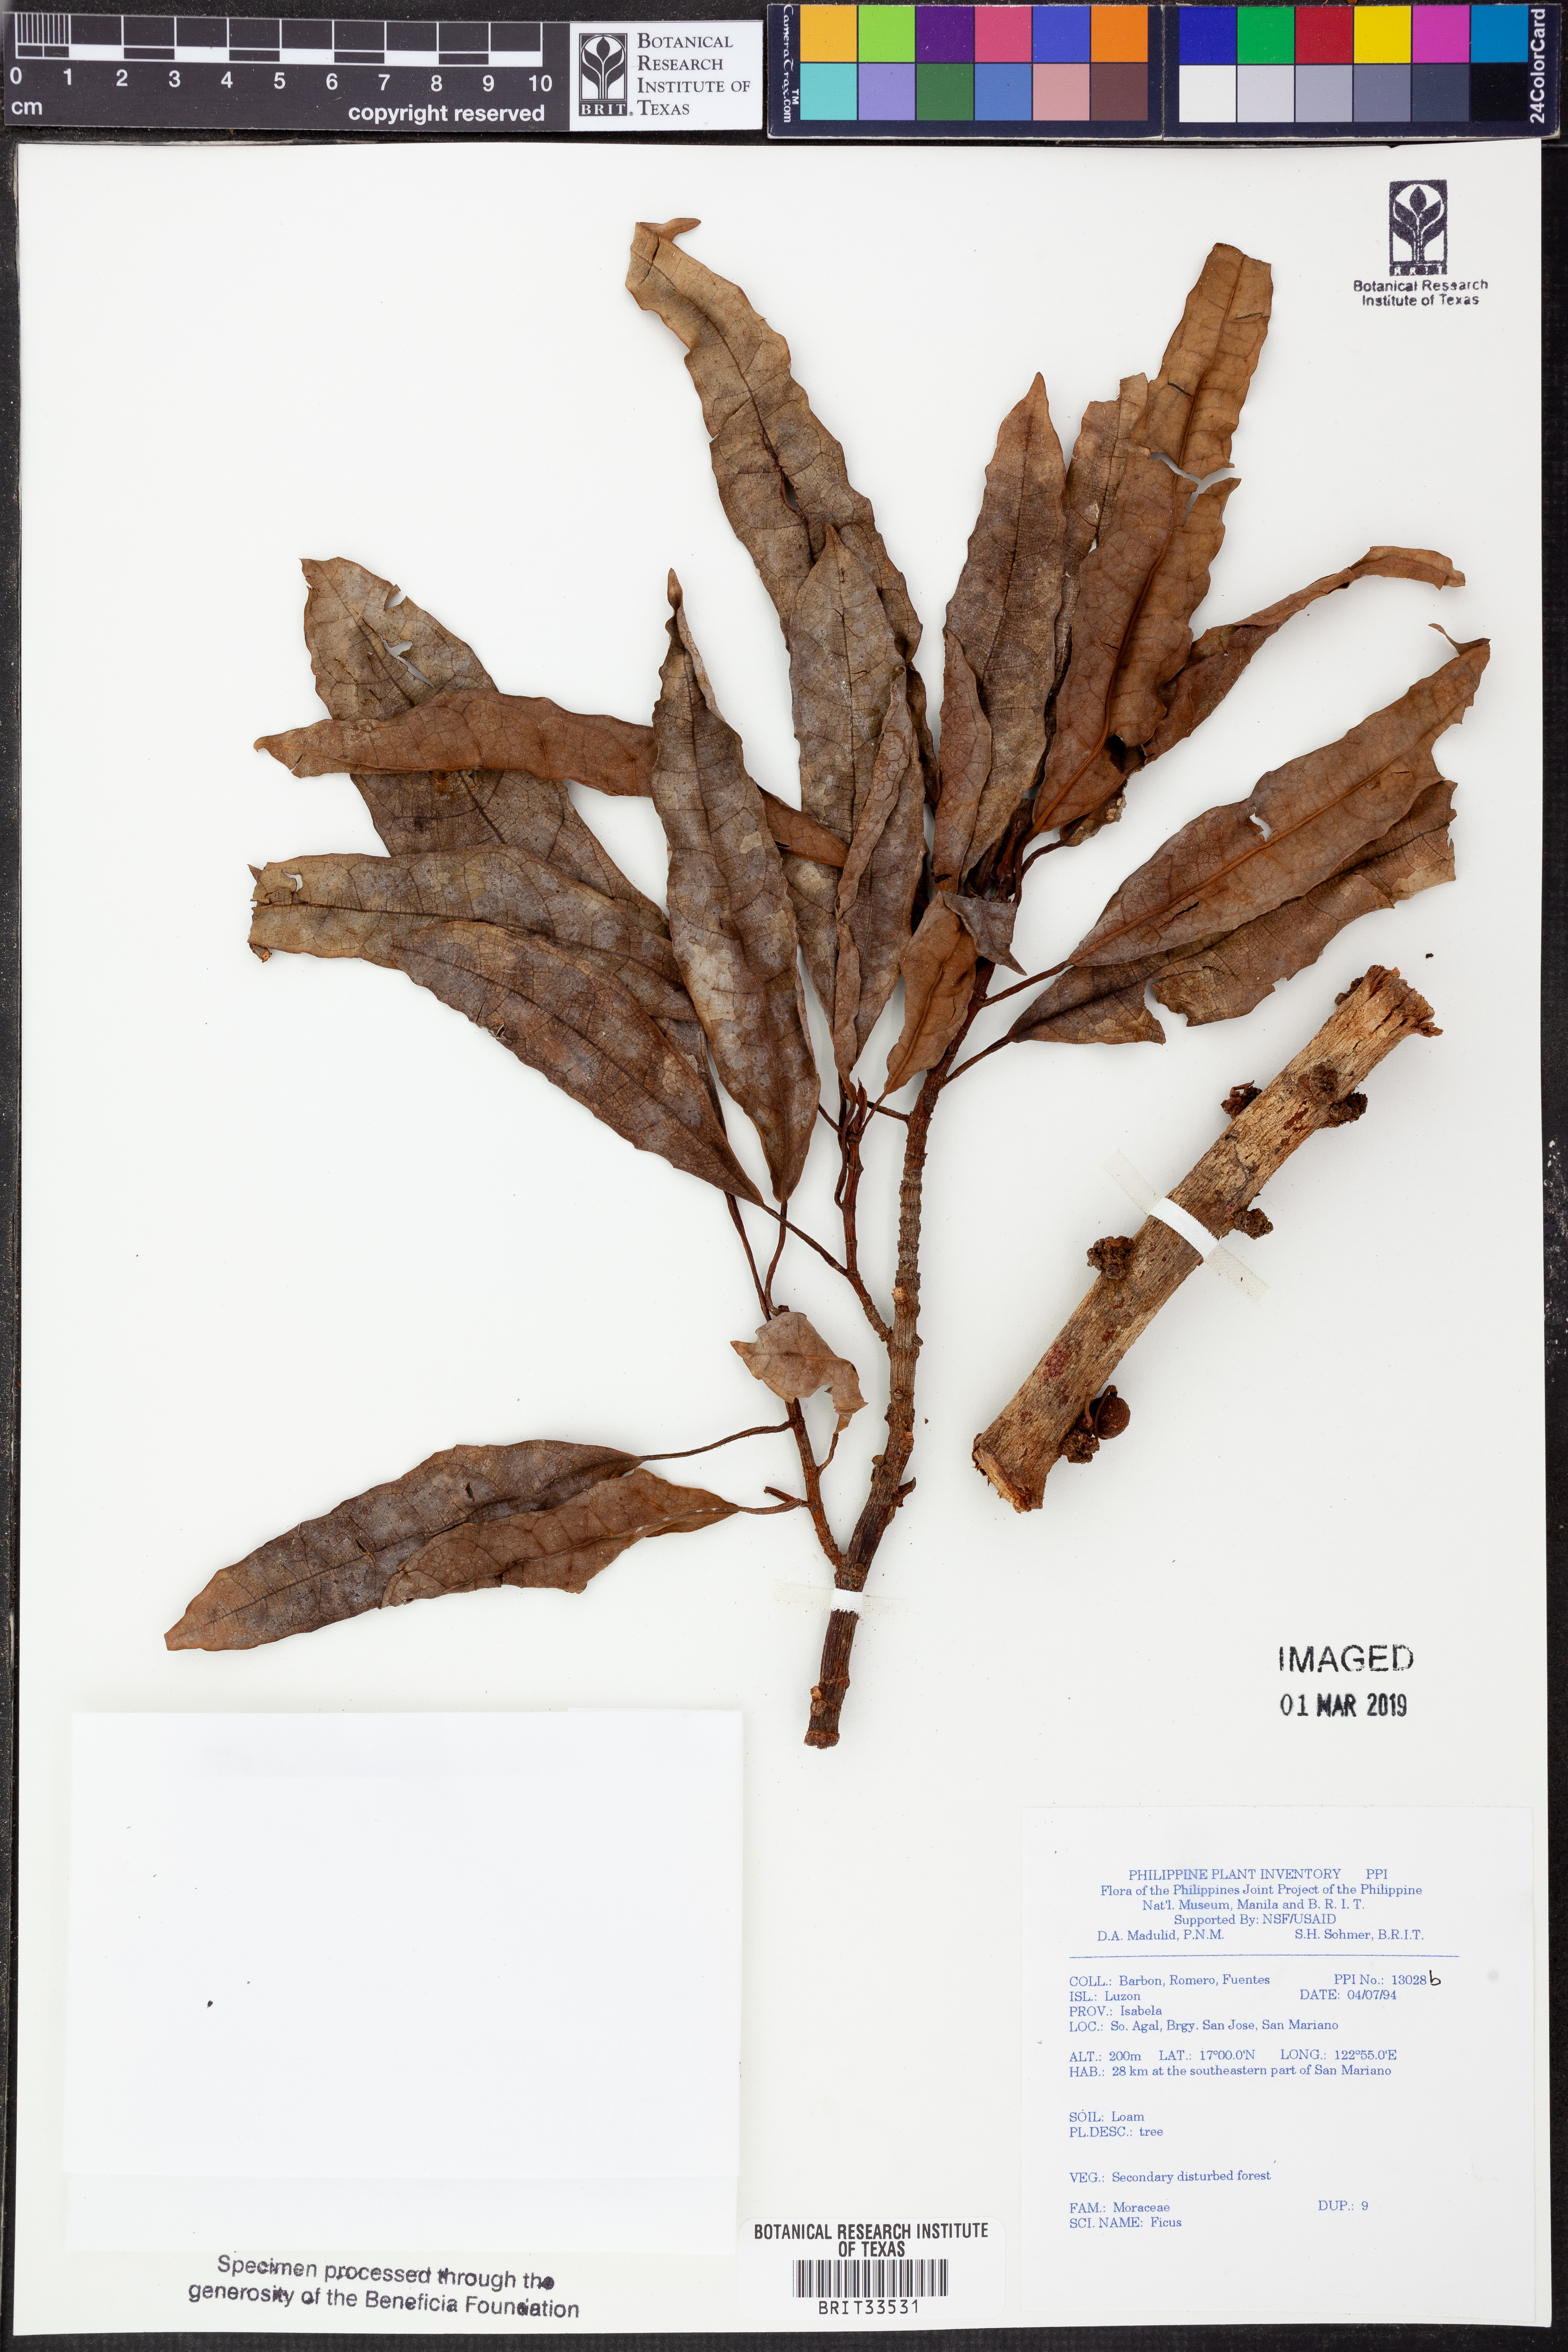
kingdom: Plantae
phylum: Tracheophyta
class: Magnoliopsida
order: Rosales
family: Moraceae
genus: Ficus
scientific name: Ficus
